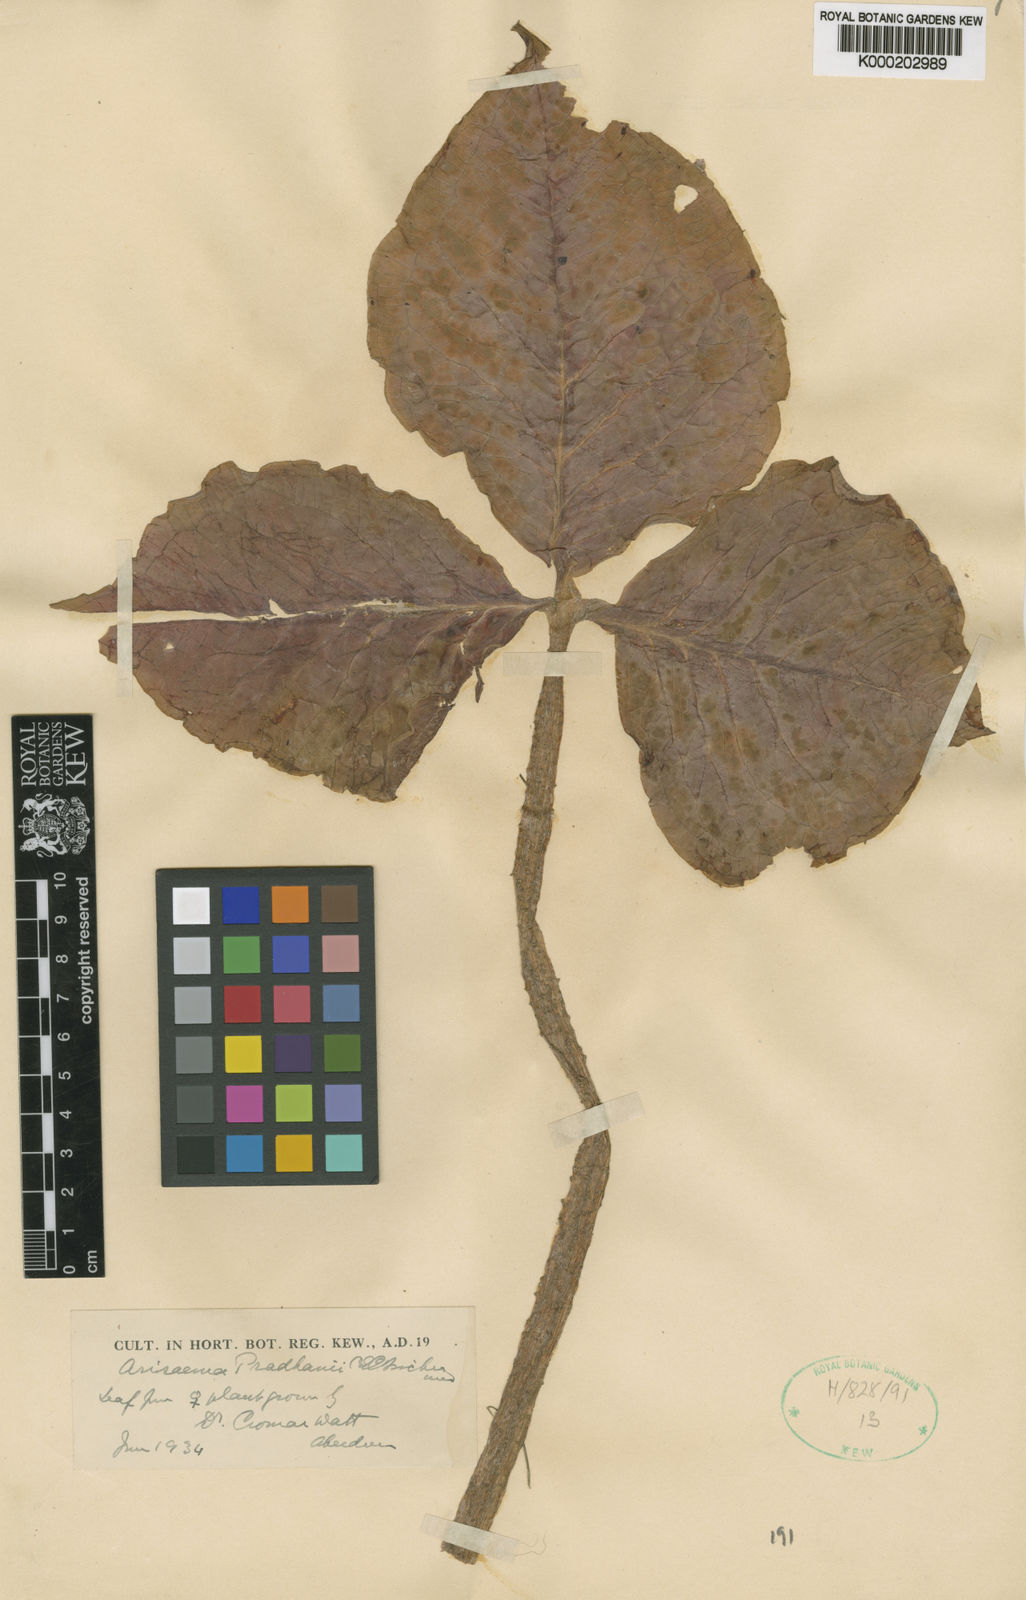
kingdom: Plantae
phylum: Tracheophyta
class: Liliopsida
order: Alismatales
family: Araceae
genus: Arisaema
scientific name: Arisaema griffithii
